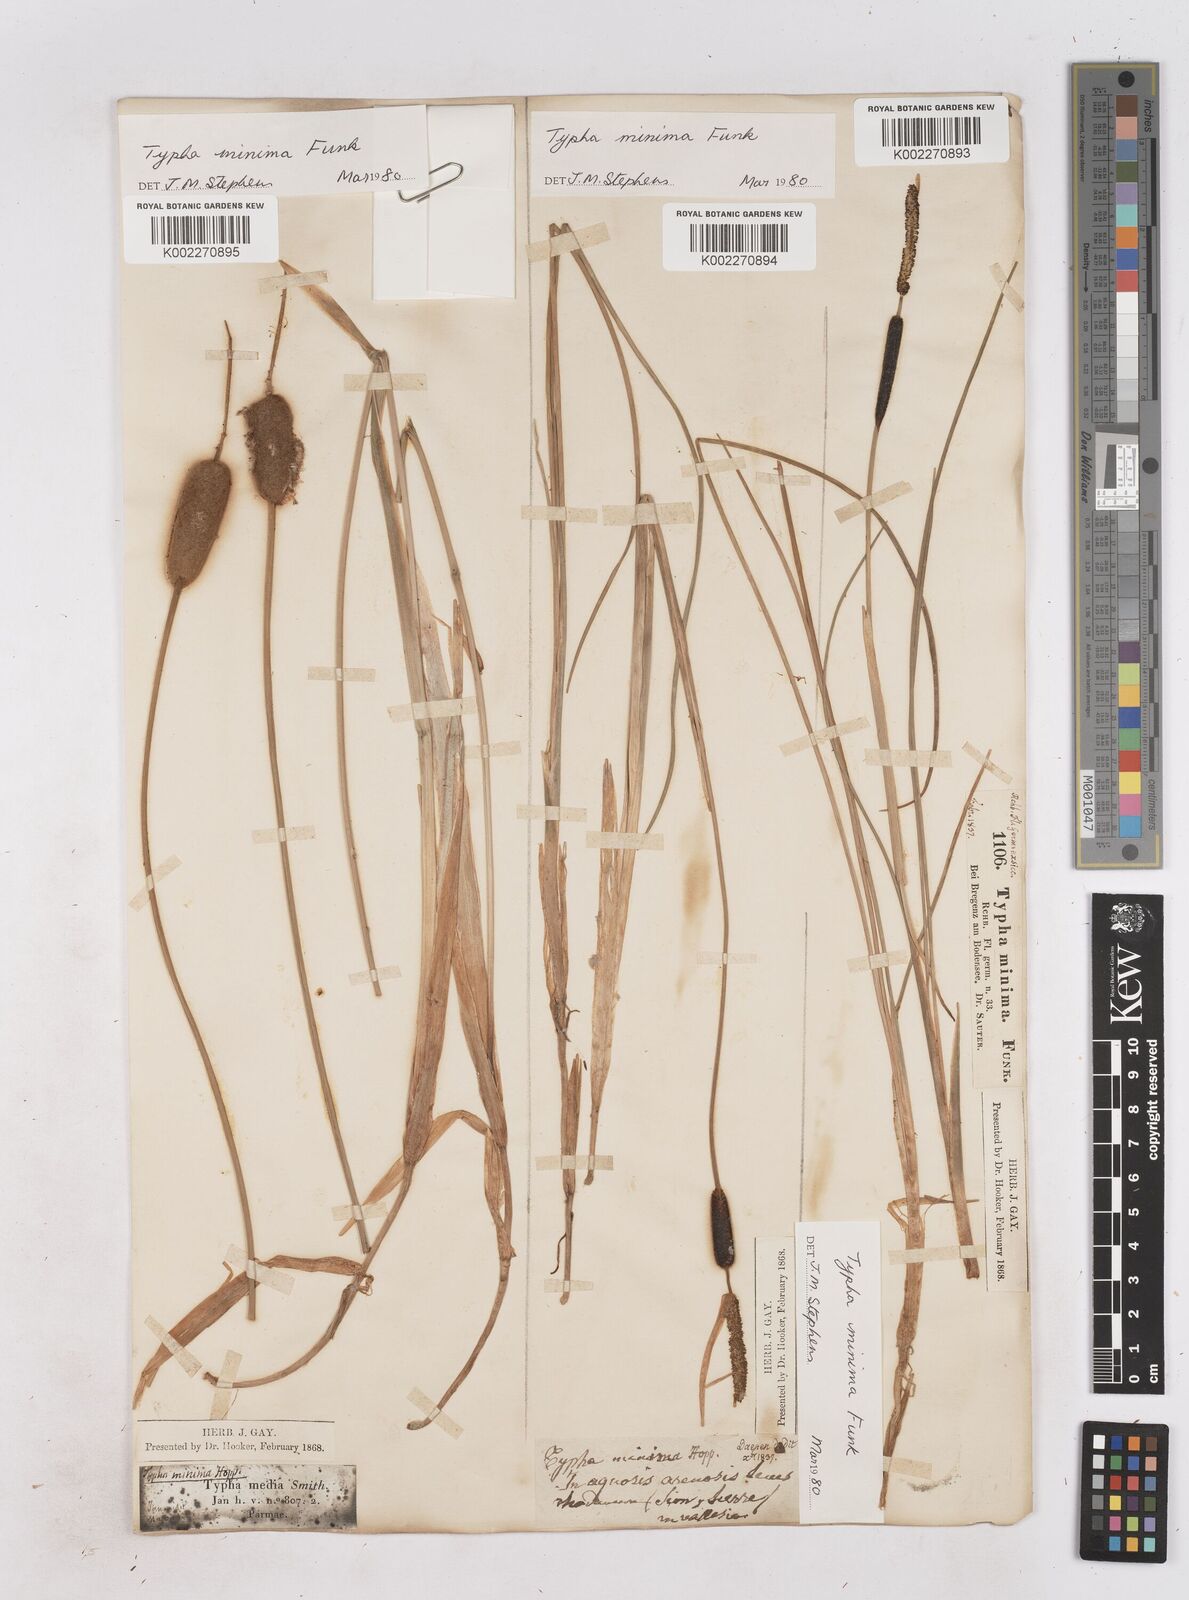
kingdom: Plantae
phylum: Tracheophyta
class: Liliopsida
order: Poales
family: Typhaceae
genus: Typha
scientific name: Typha minima
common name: Dwarf bulrush
